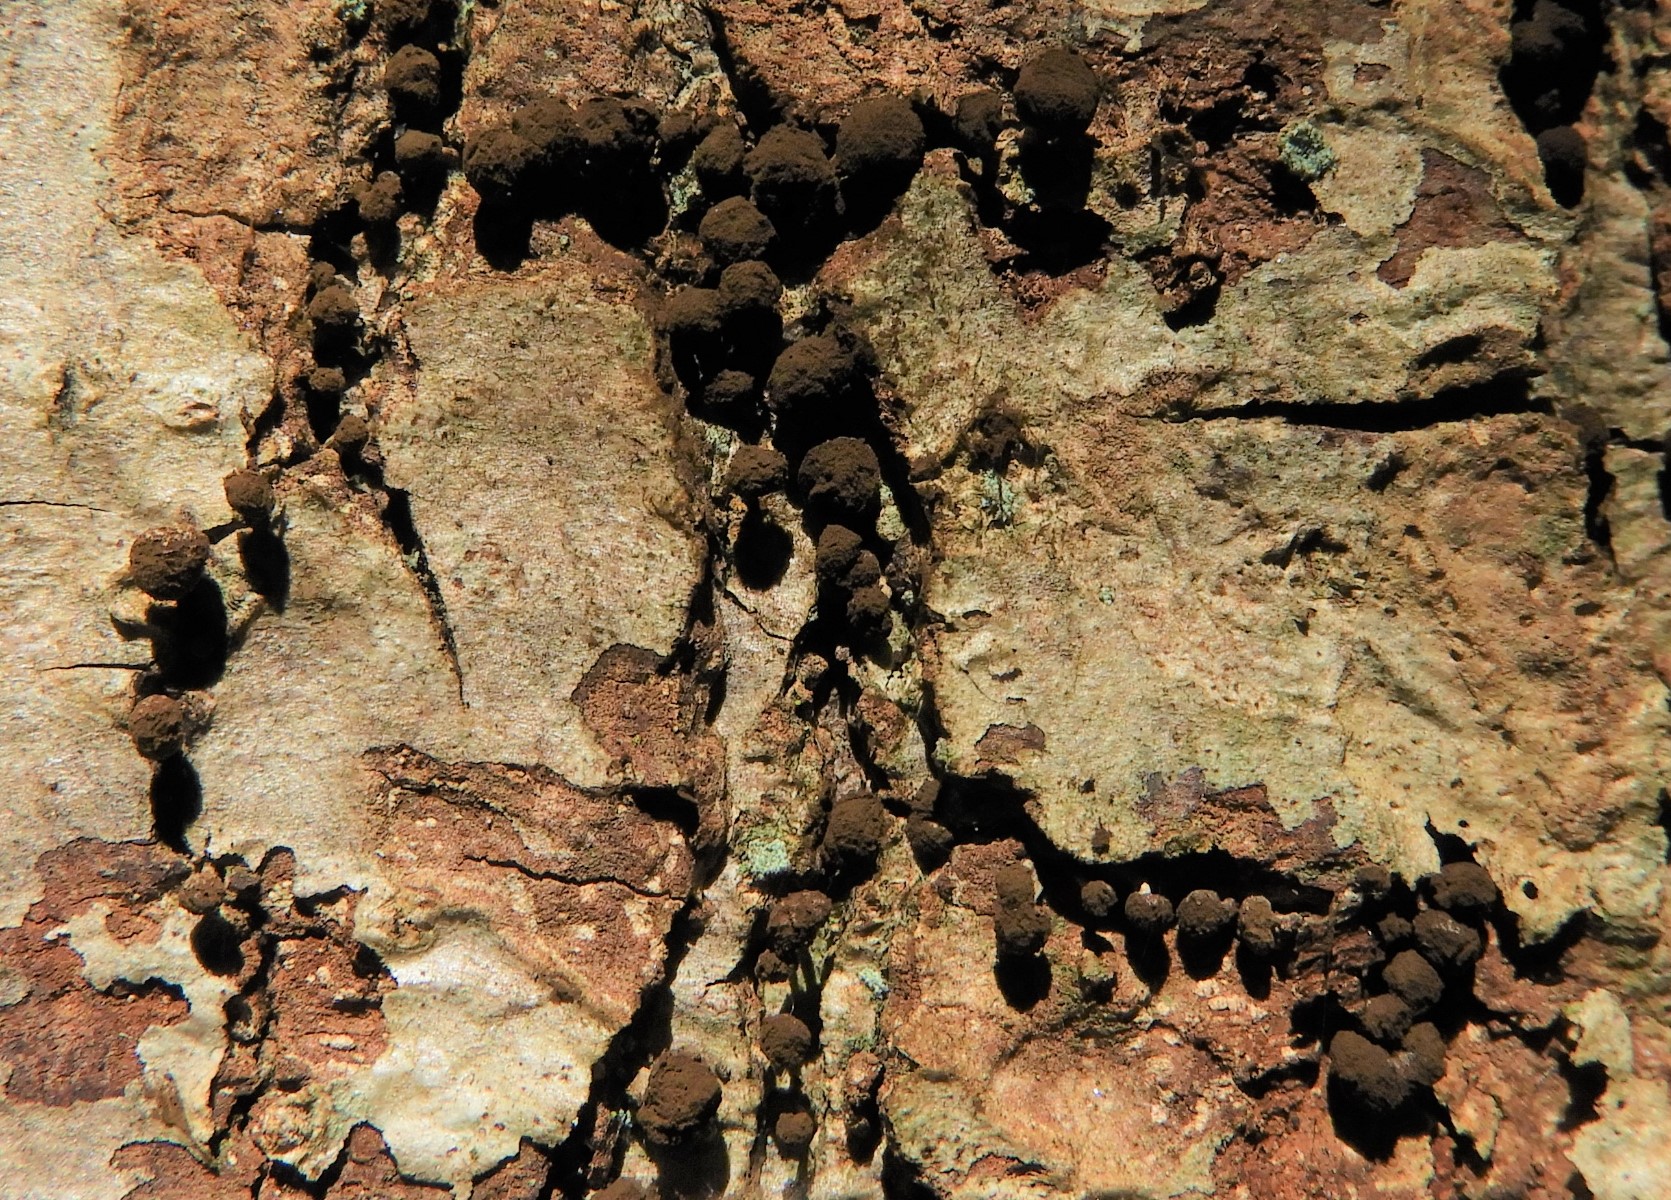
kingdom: Fungi
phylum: Basidiomycota
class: Atractiellomycetes
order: Atractiellales
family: Phleogenaceae
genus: Phleogena
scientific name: Phleogena faginea
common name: pudderkølle
